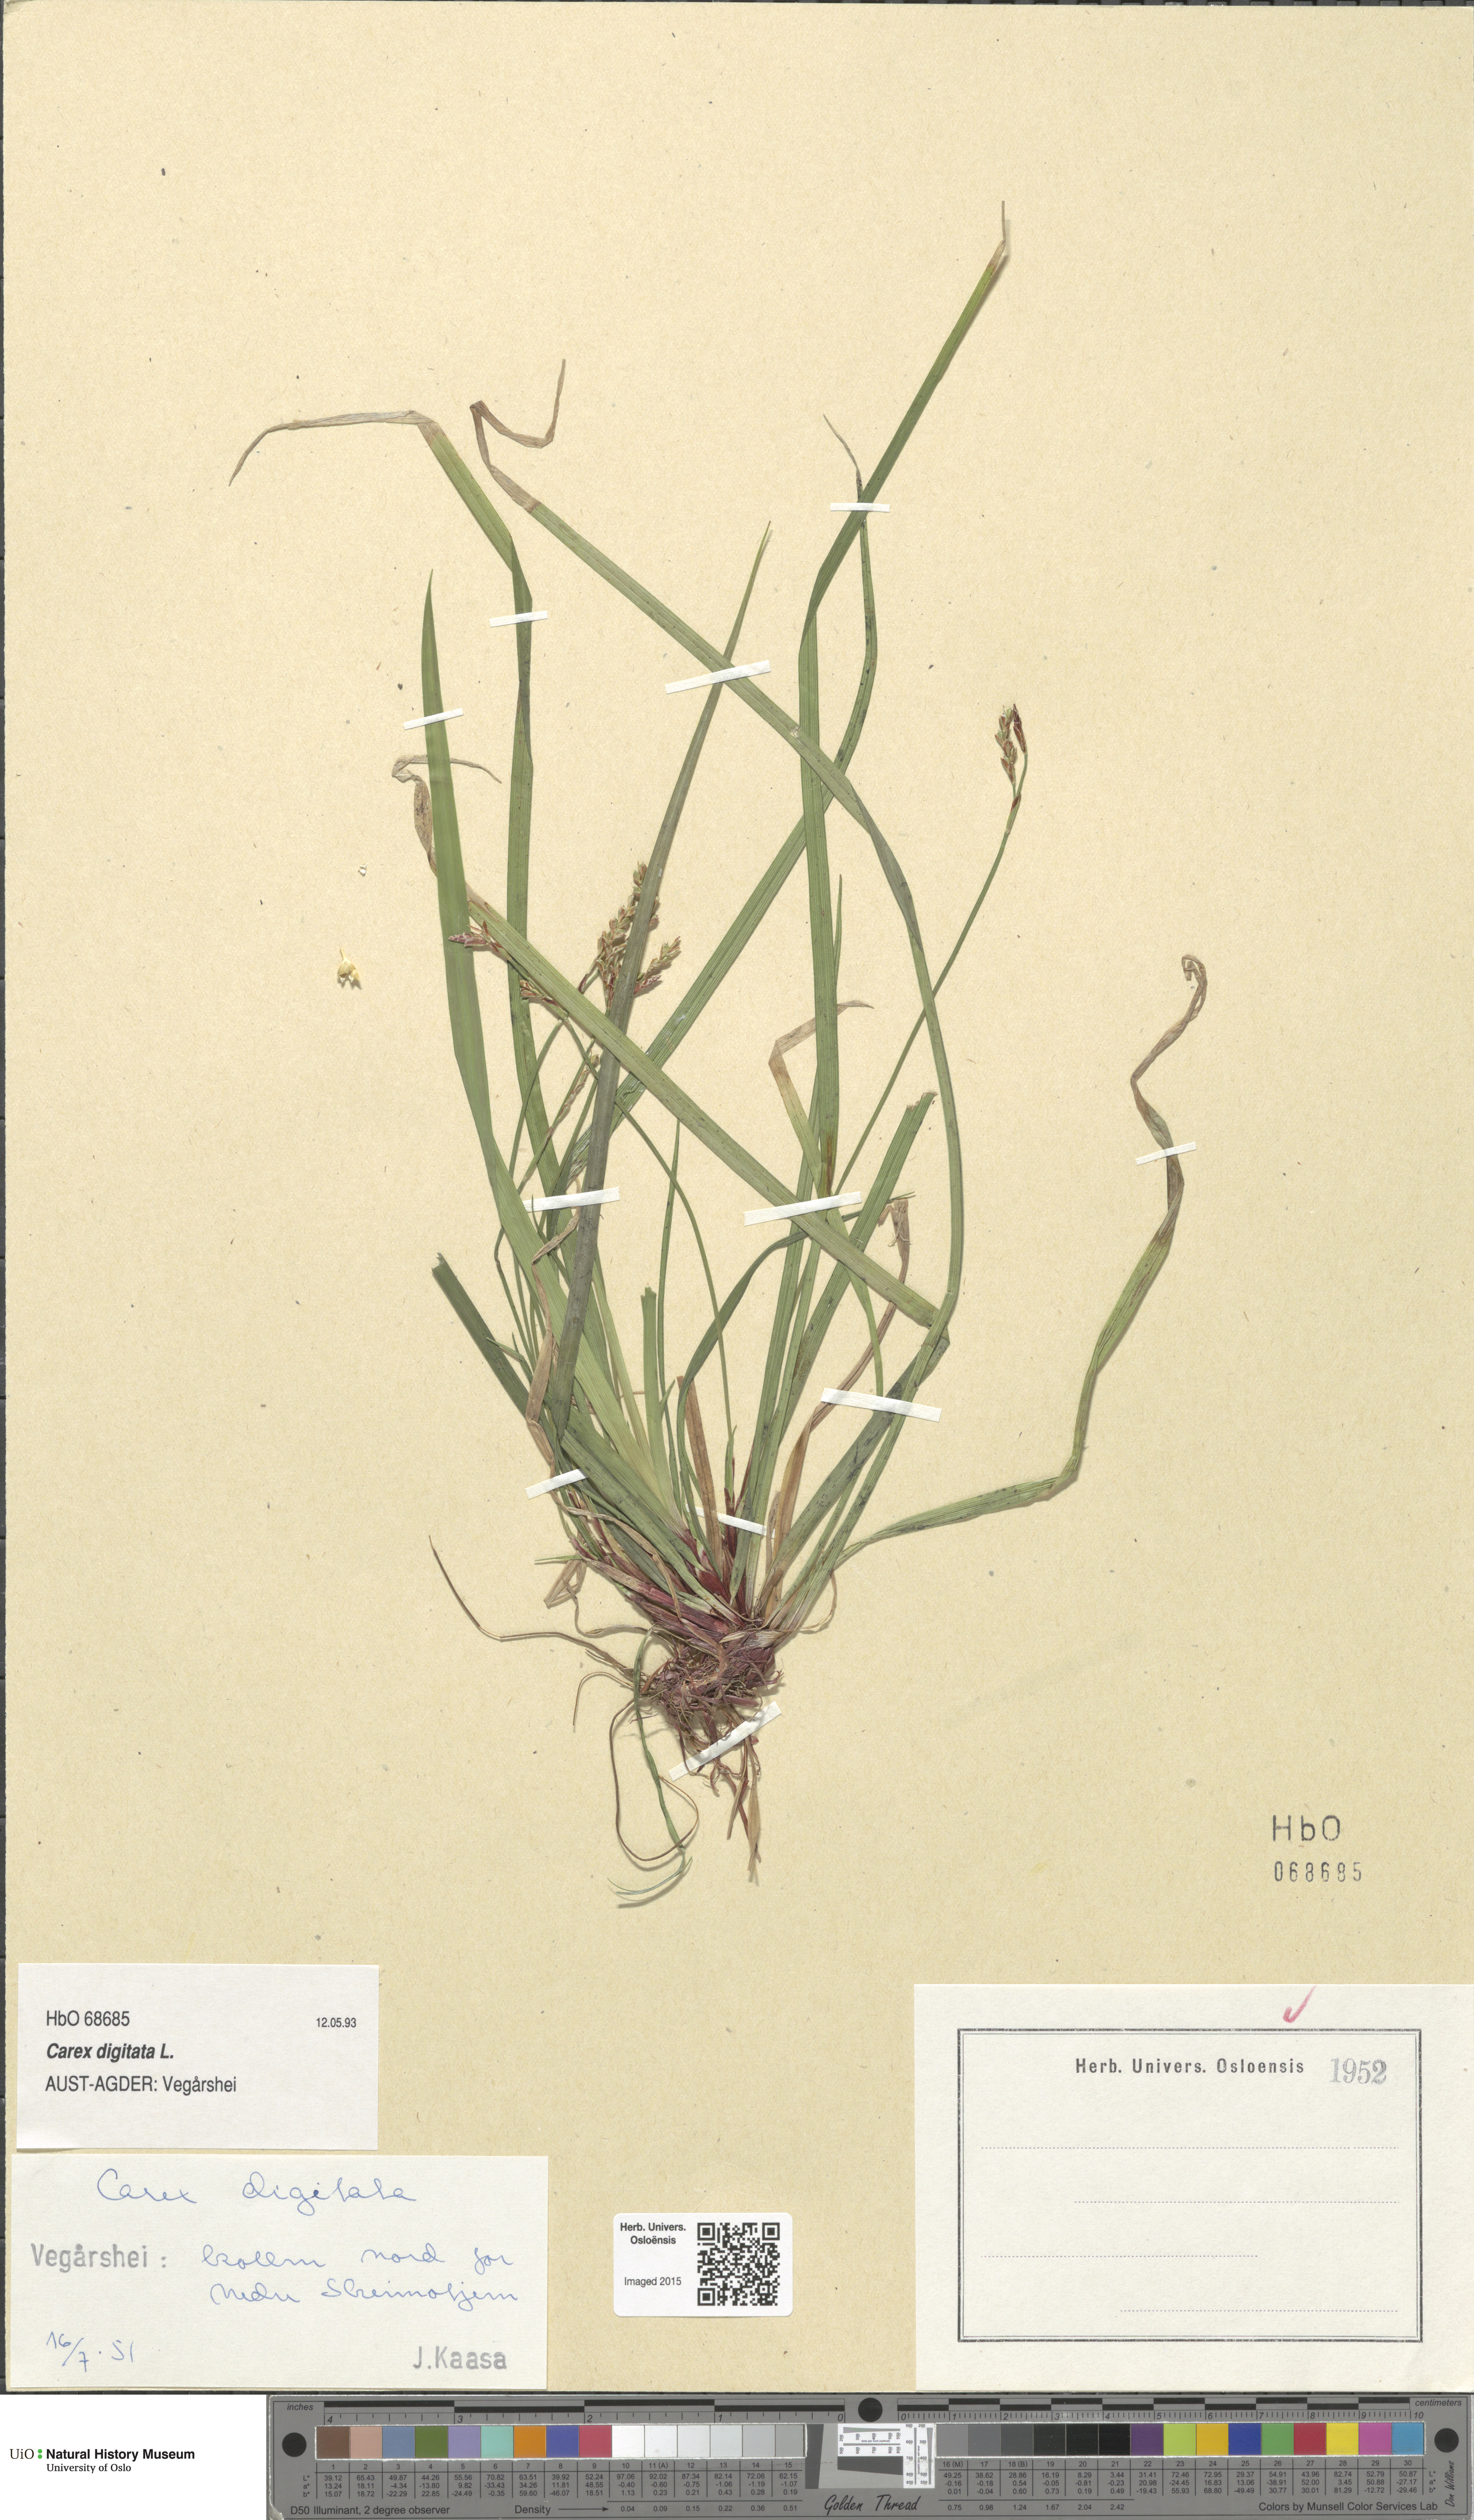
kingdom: Plantae
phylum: Tracheophyta
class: Liliopsida
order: Poales
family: Cyperaceae
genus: Carex
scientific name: Carex digitata
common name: Fingered sedge
